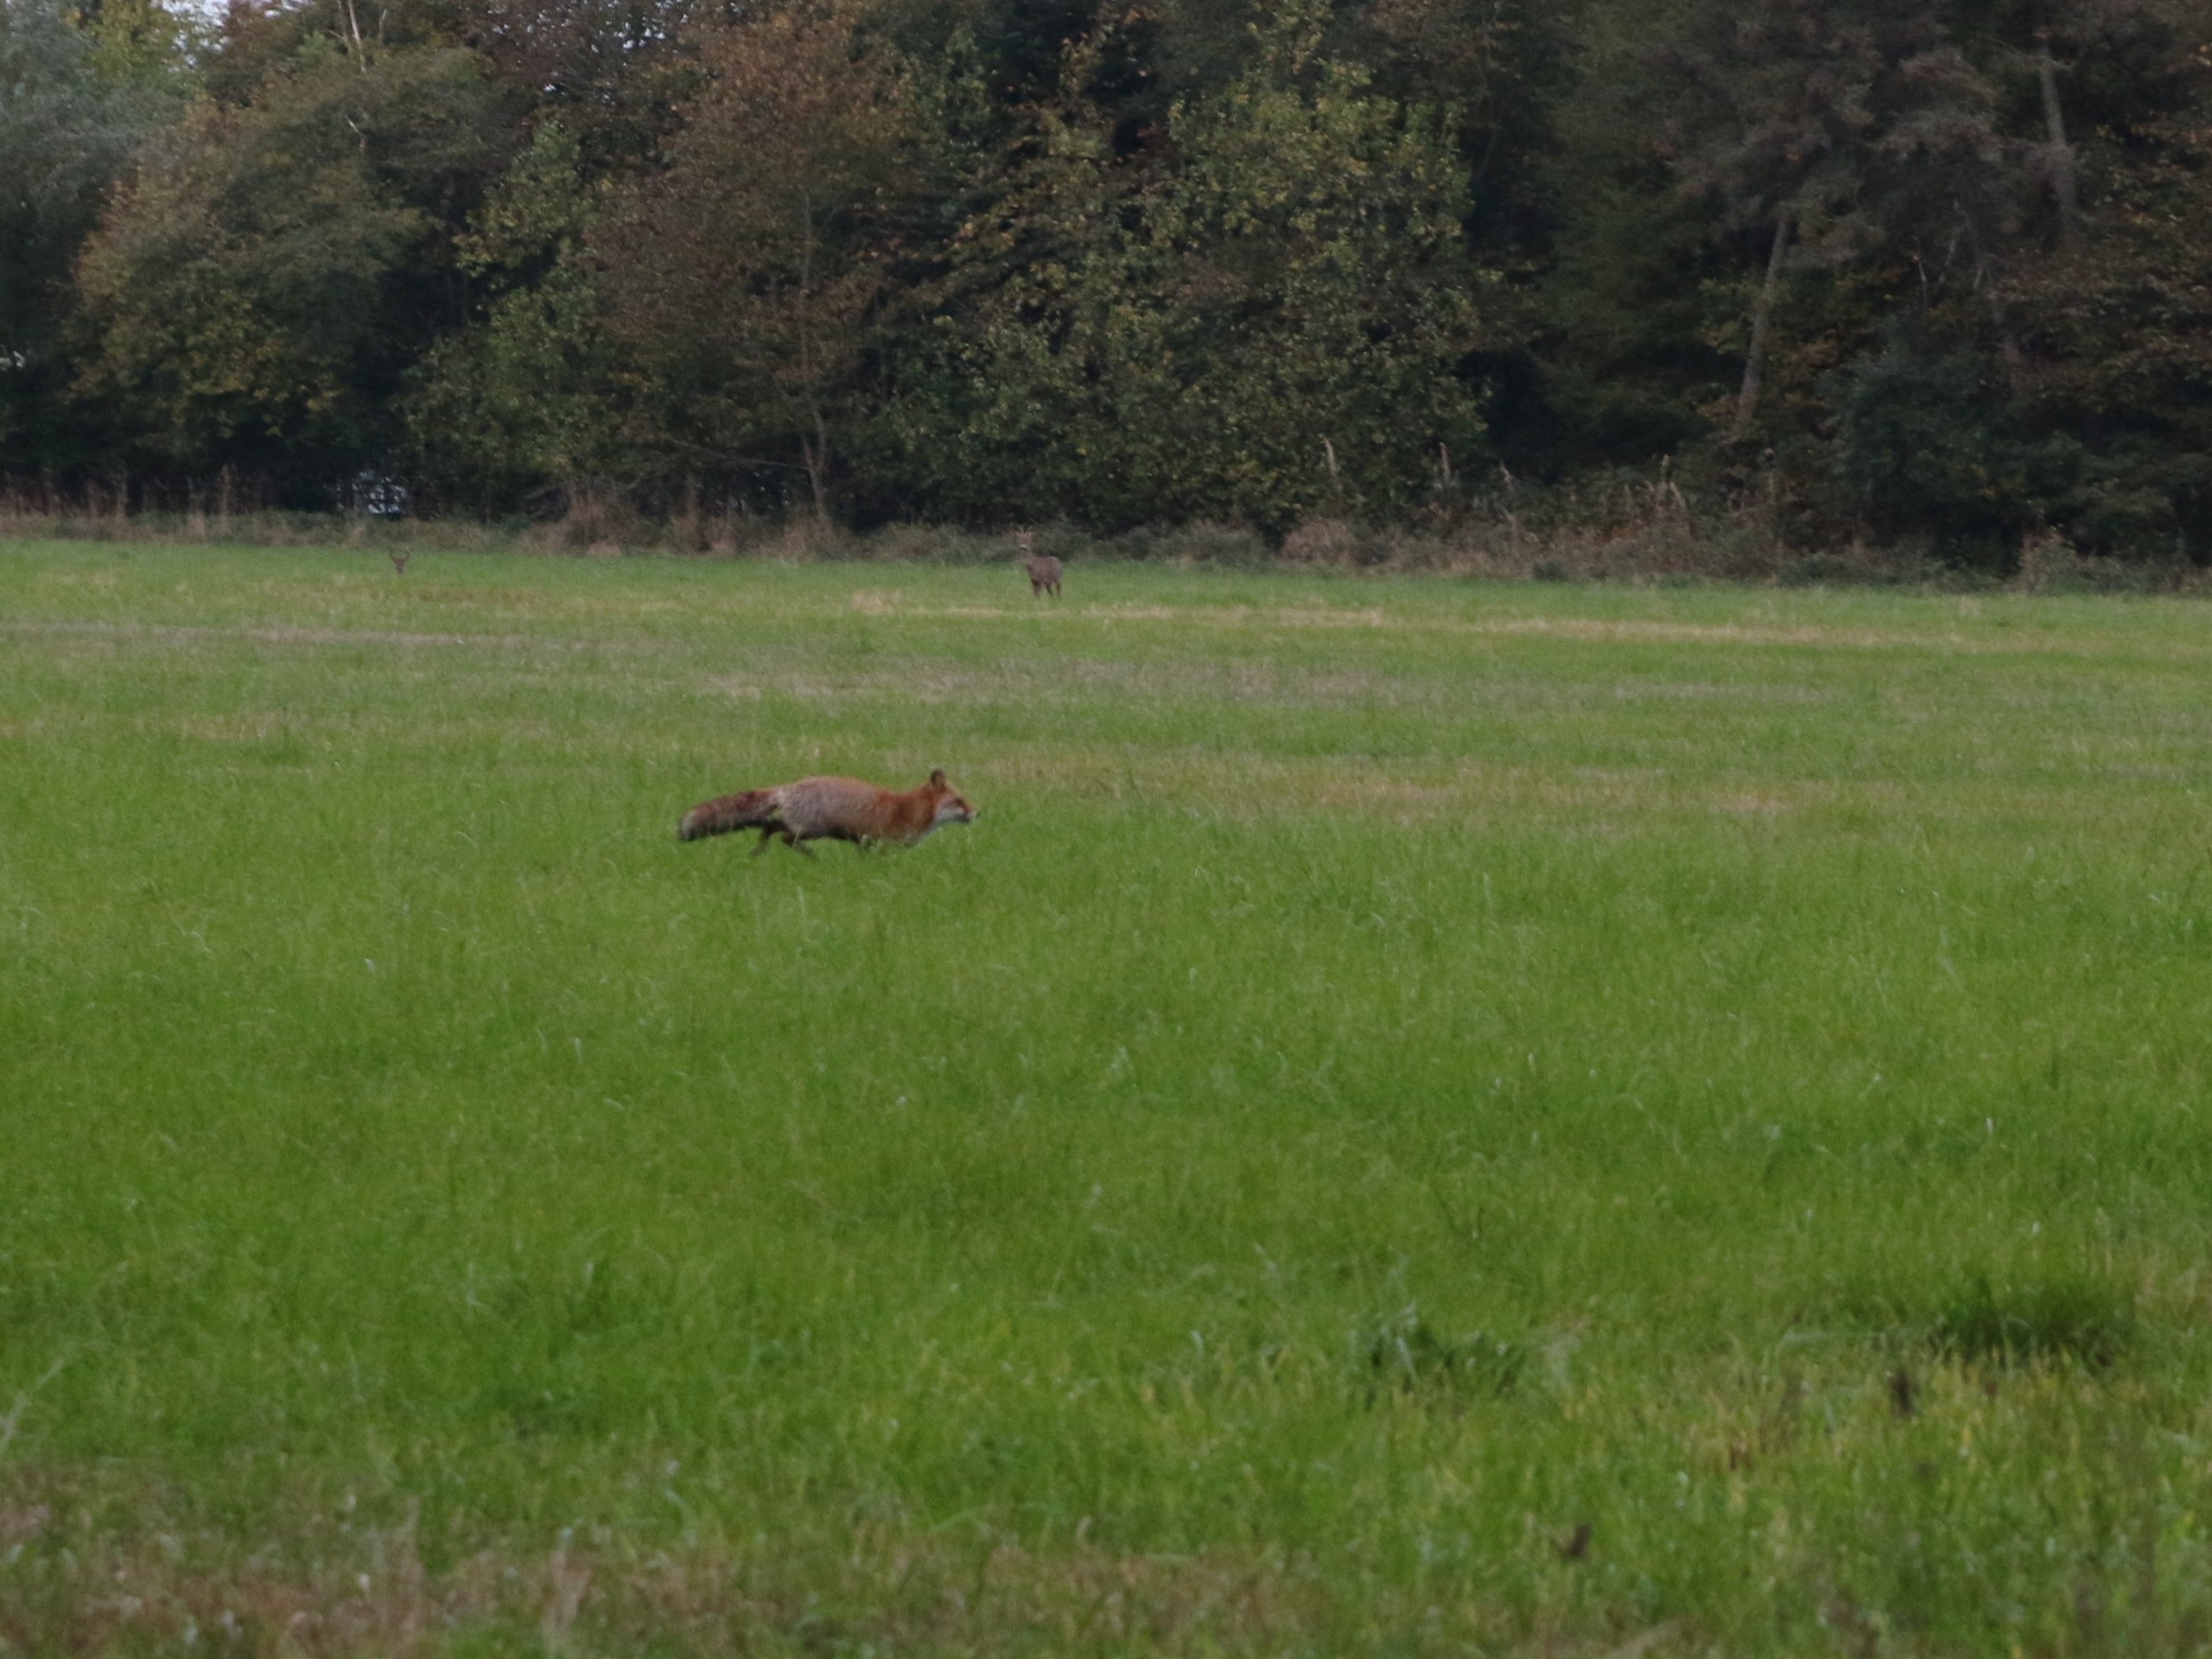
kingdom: Animalia
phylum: Chordata
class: Mammalia
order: Carnivora
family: Canidae
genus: Vulpes
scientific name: Vulpes vulpes
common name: Ræv
